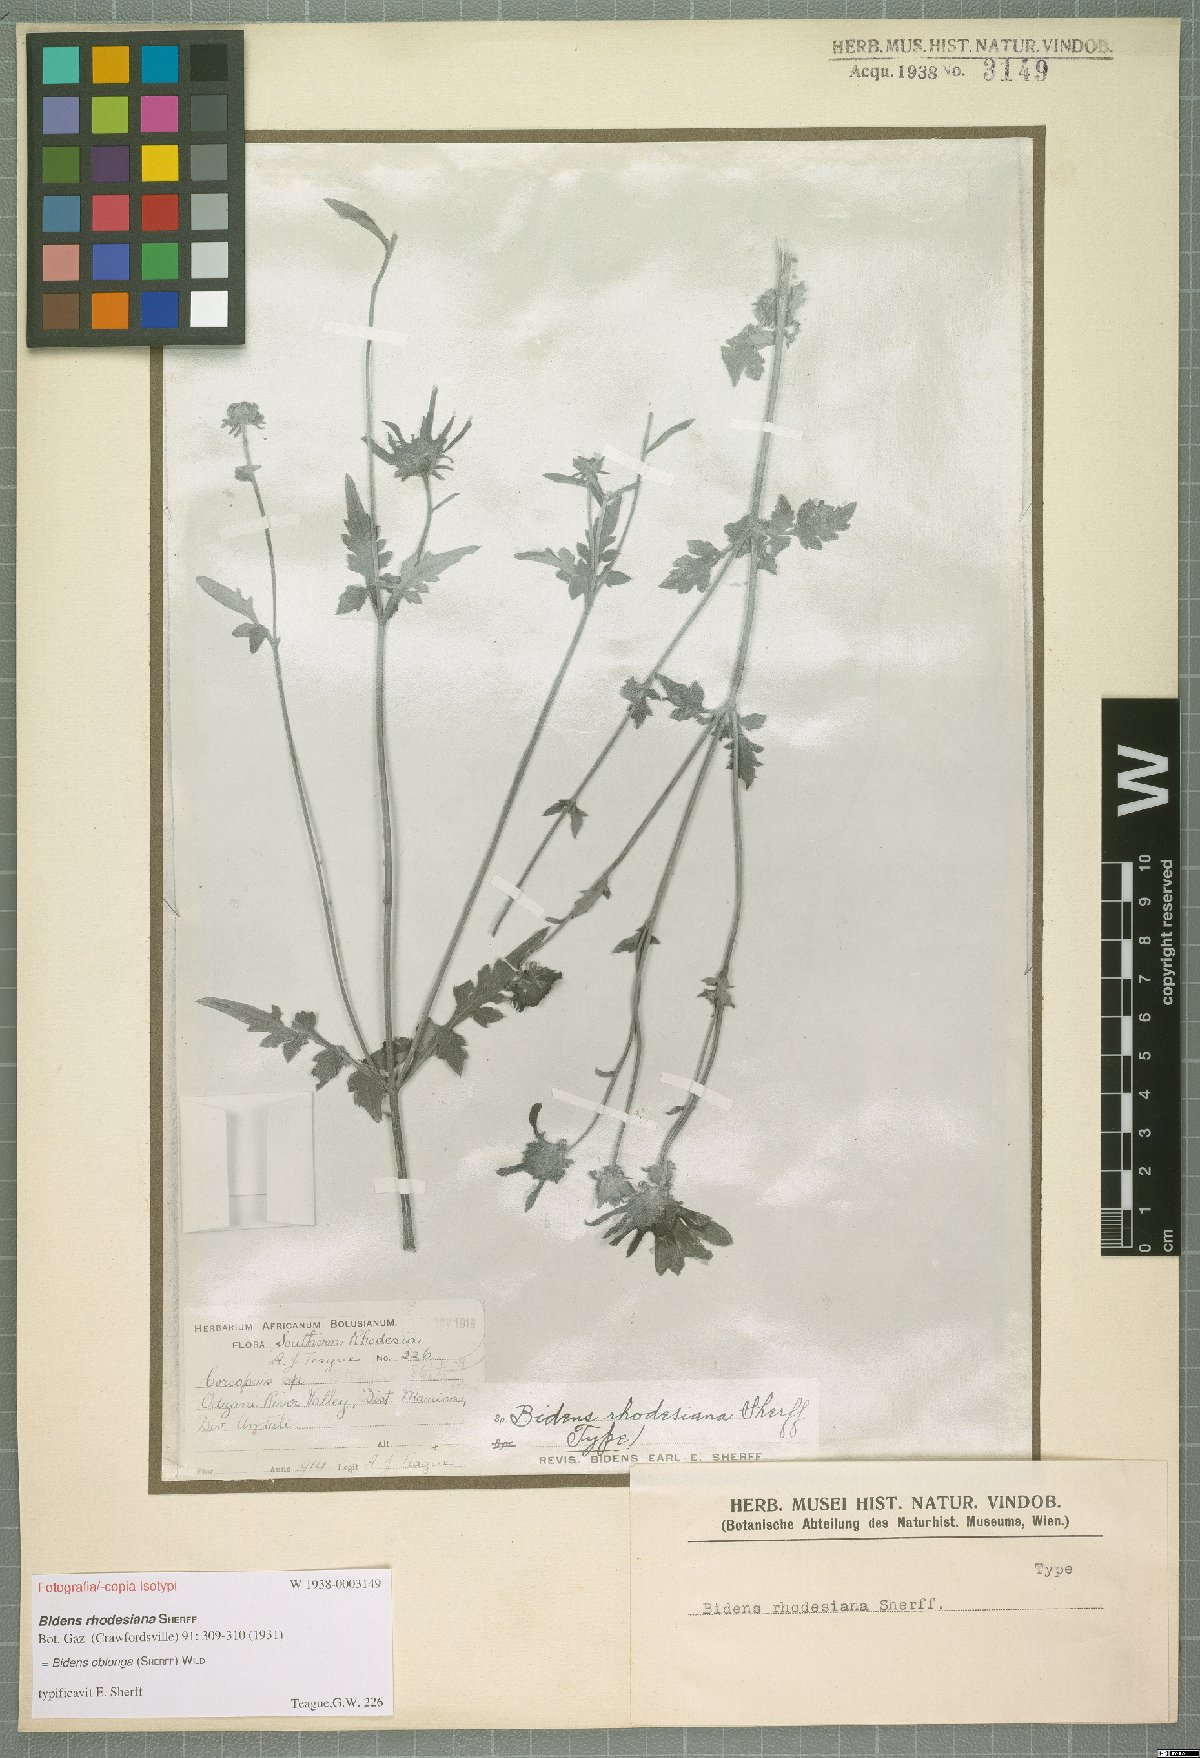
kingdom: Plantae
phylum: Tracheophyta
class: Magnoliopsida
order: Asterales
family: Asteraceae
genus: Bidens
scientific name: Bidens oblonga
